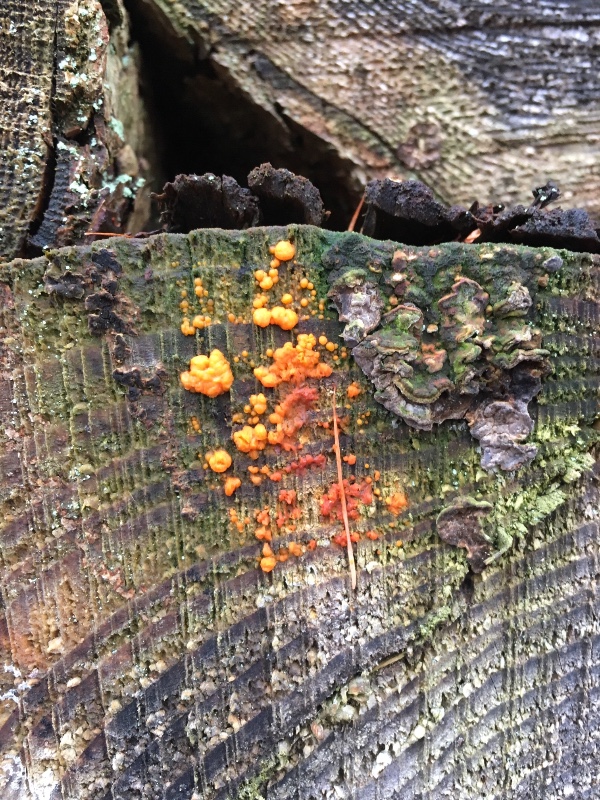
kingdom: Fungi
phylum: Basidiomycota
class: Dacrymycetes
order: Dacrymycetales
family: Dacrymycetaceae
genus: Dacrymyces
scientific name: Dacrymyces stillatus
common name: almindelig tåresvamp
